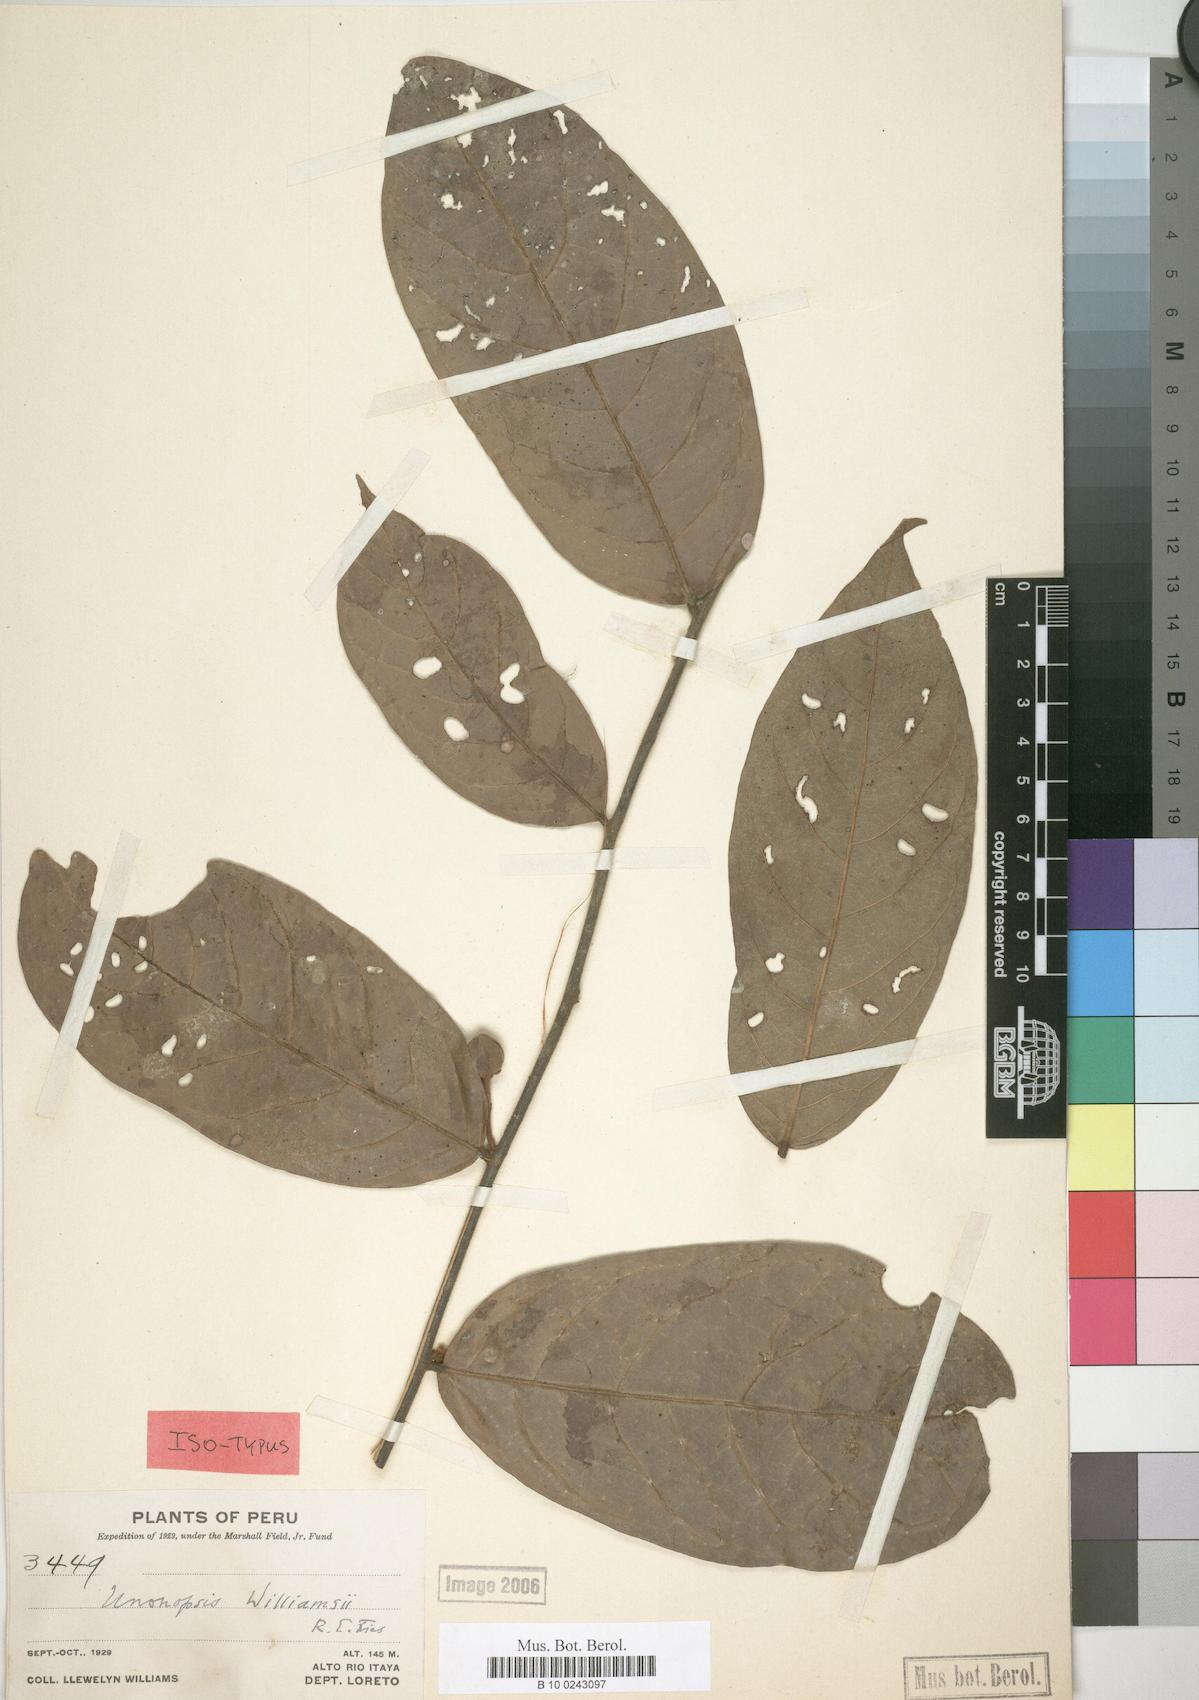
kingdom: Plantae
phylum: Tracheophyta
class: Magnoliopsida
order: Magnoliales
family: Annonaceae
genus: Unonopsis
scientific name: Unonopsis guatterioides
